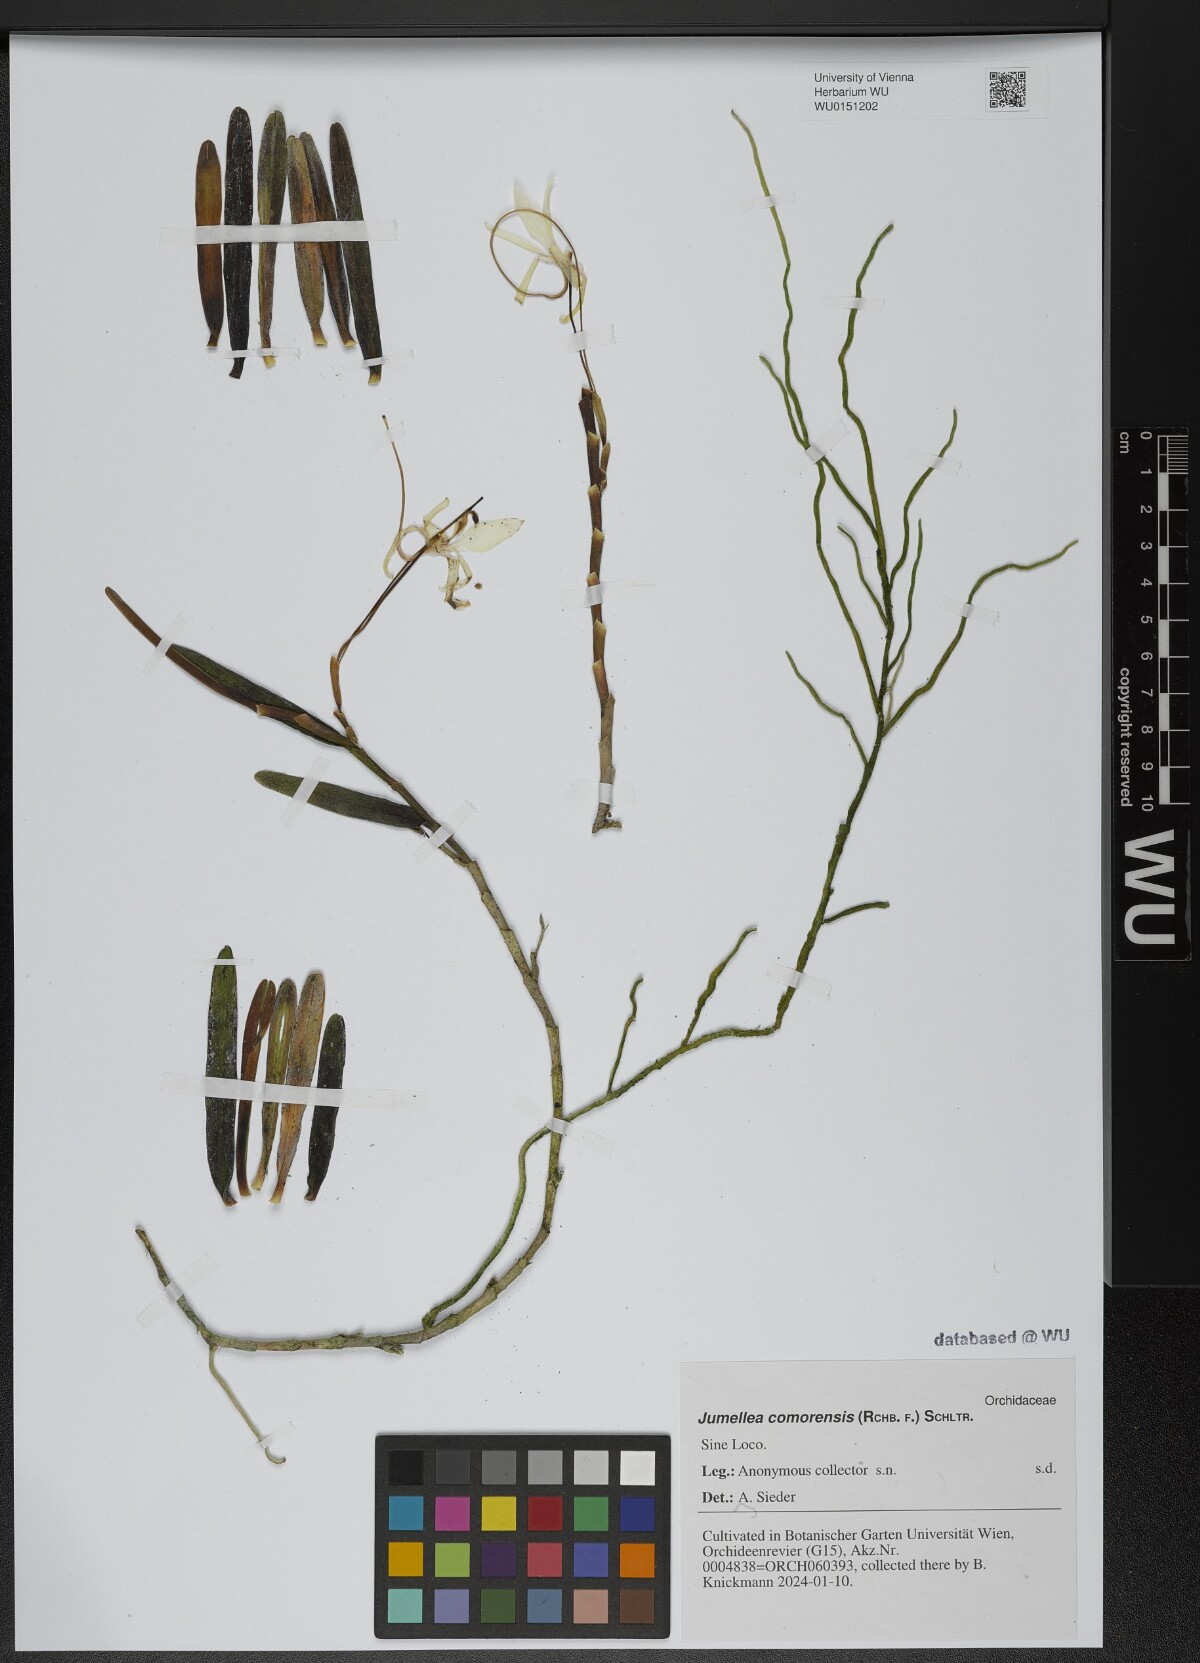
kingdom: Plantae
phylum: Tracheophyta
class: Liliopsida
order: Asparagales
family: Orchidaceae
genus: Jumellea
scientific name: Jumellea comorensis
